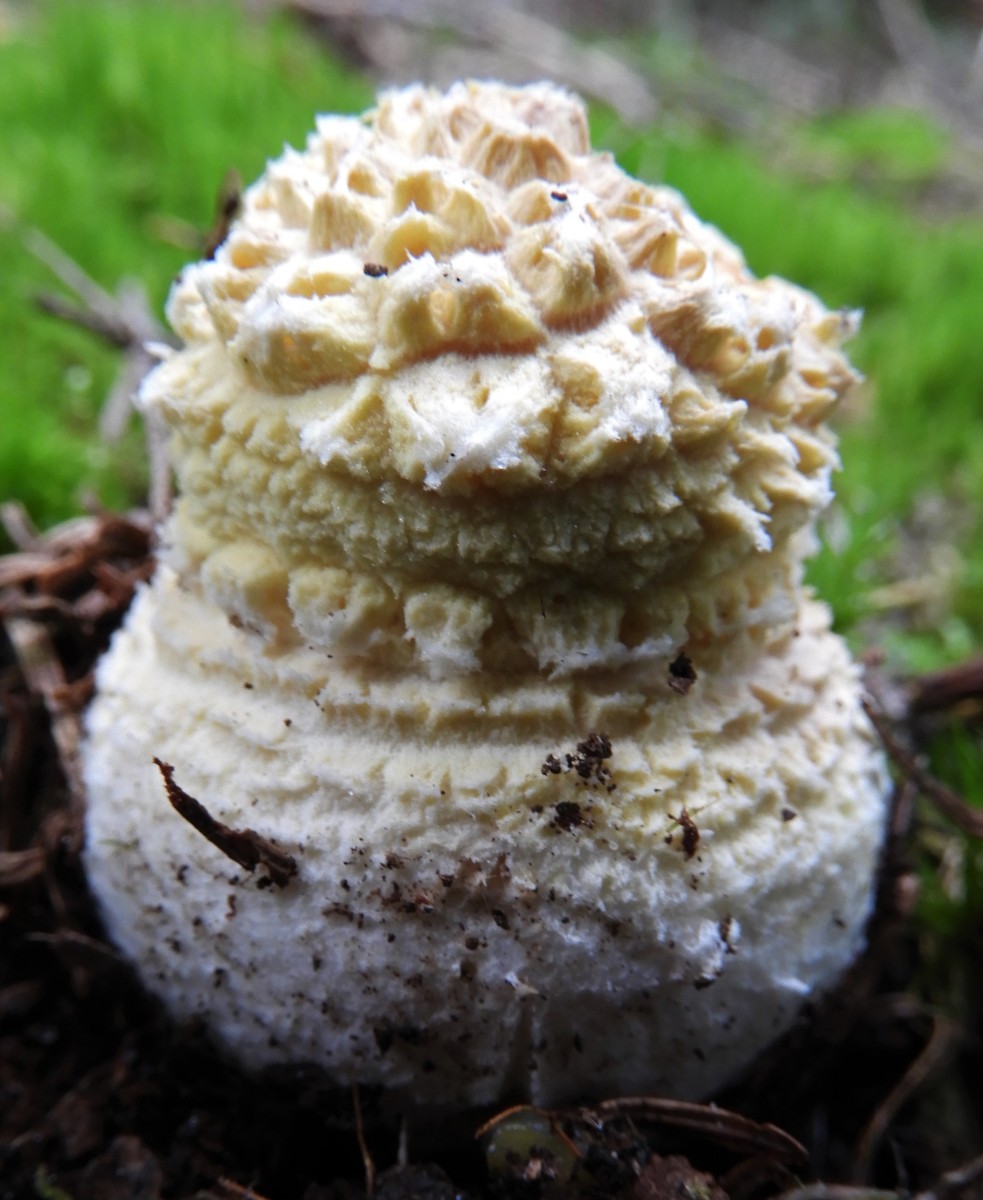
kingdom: Fungi
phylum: Basidiomycota
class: Agaricomycetes
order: Agaricales
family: Amanitaceae
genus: Amanita
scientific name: Amanita muscaria
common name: rød fluesvamp
